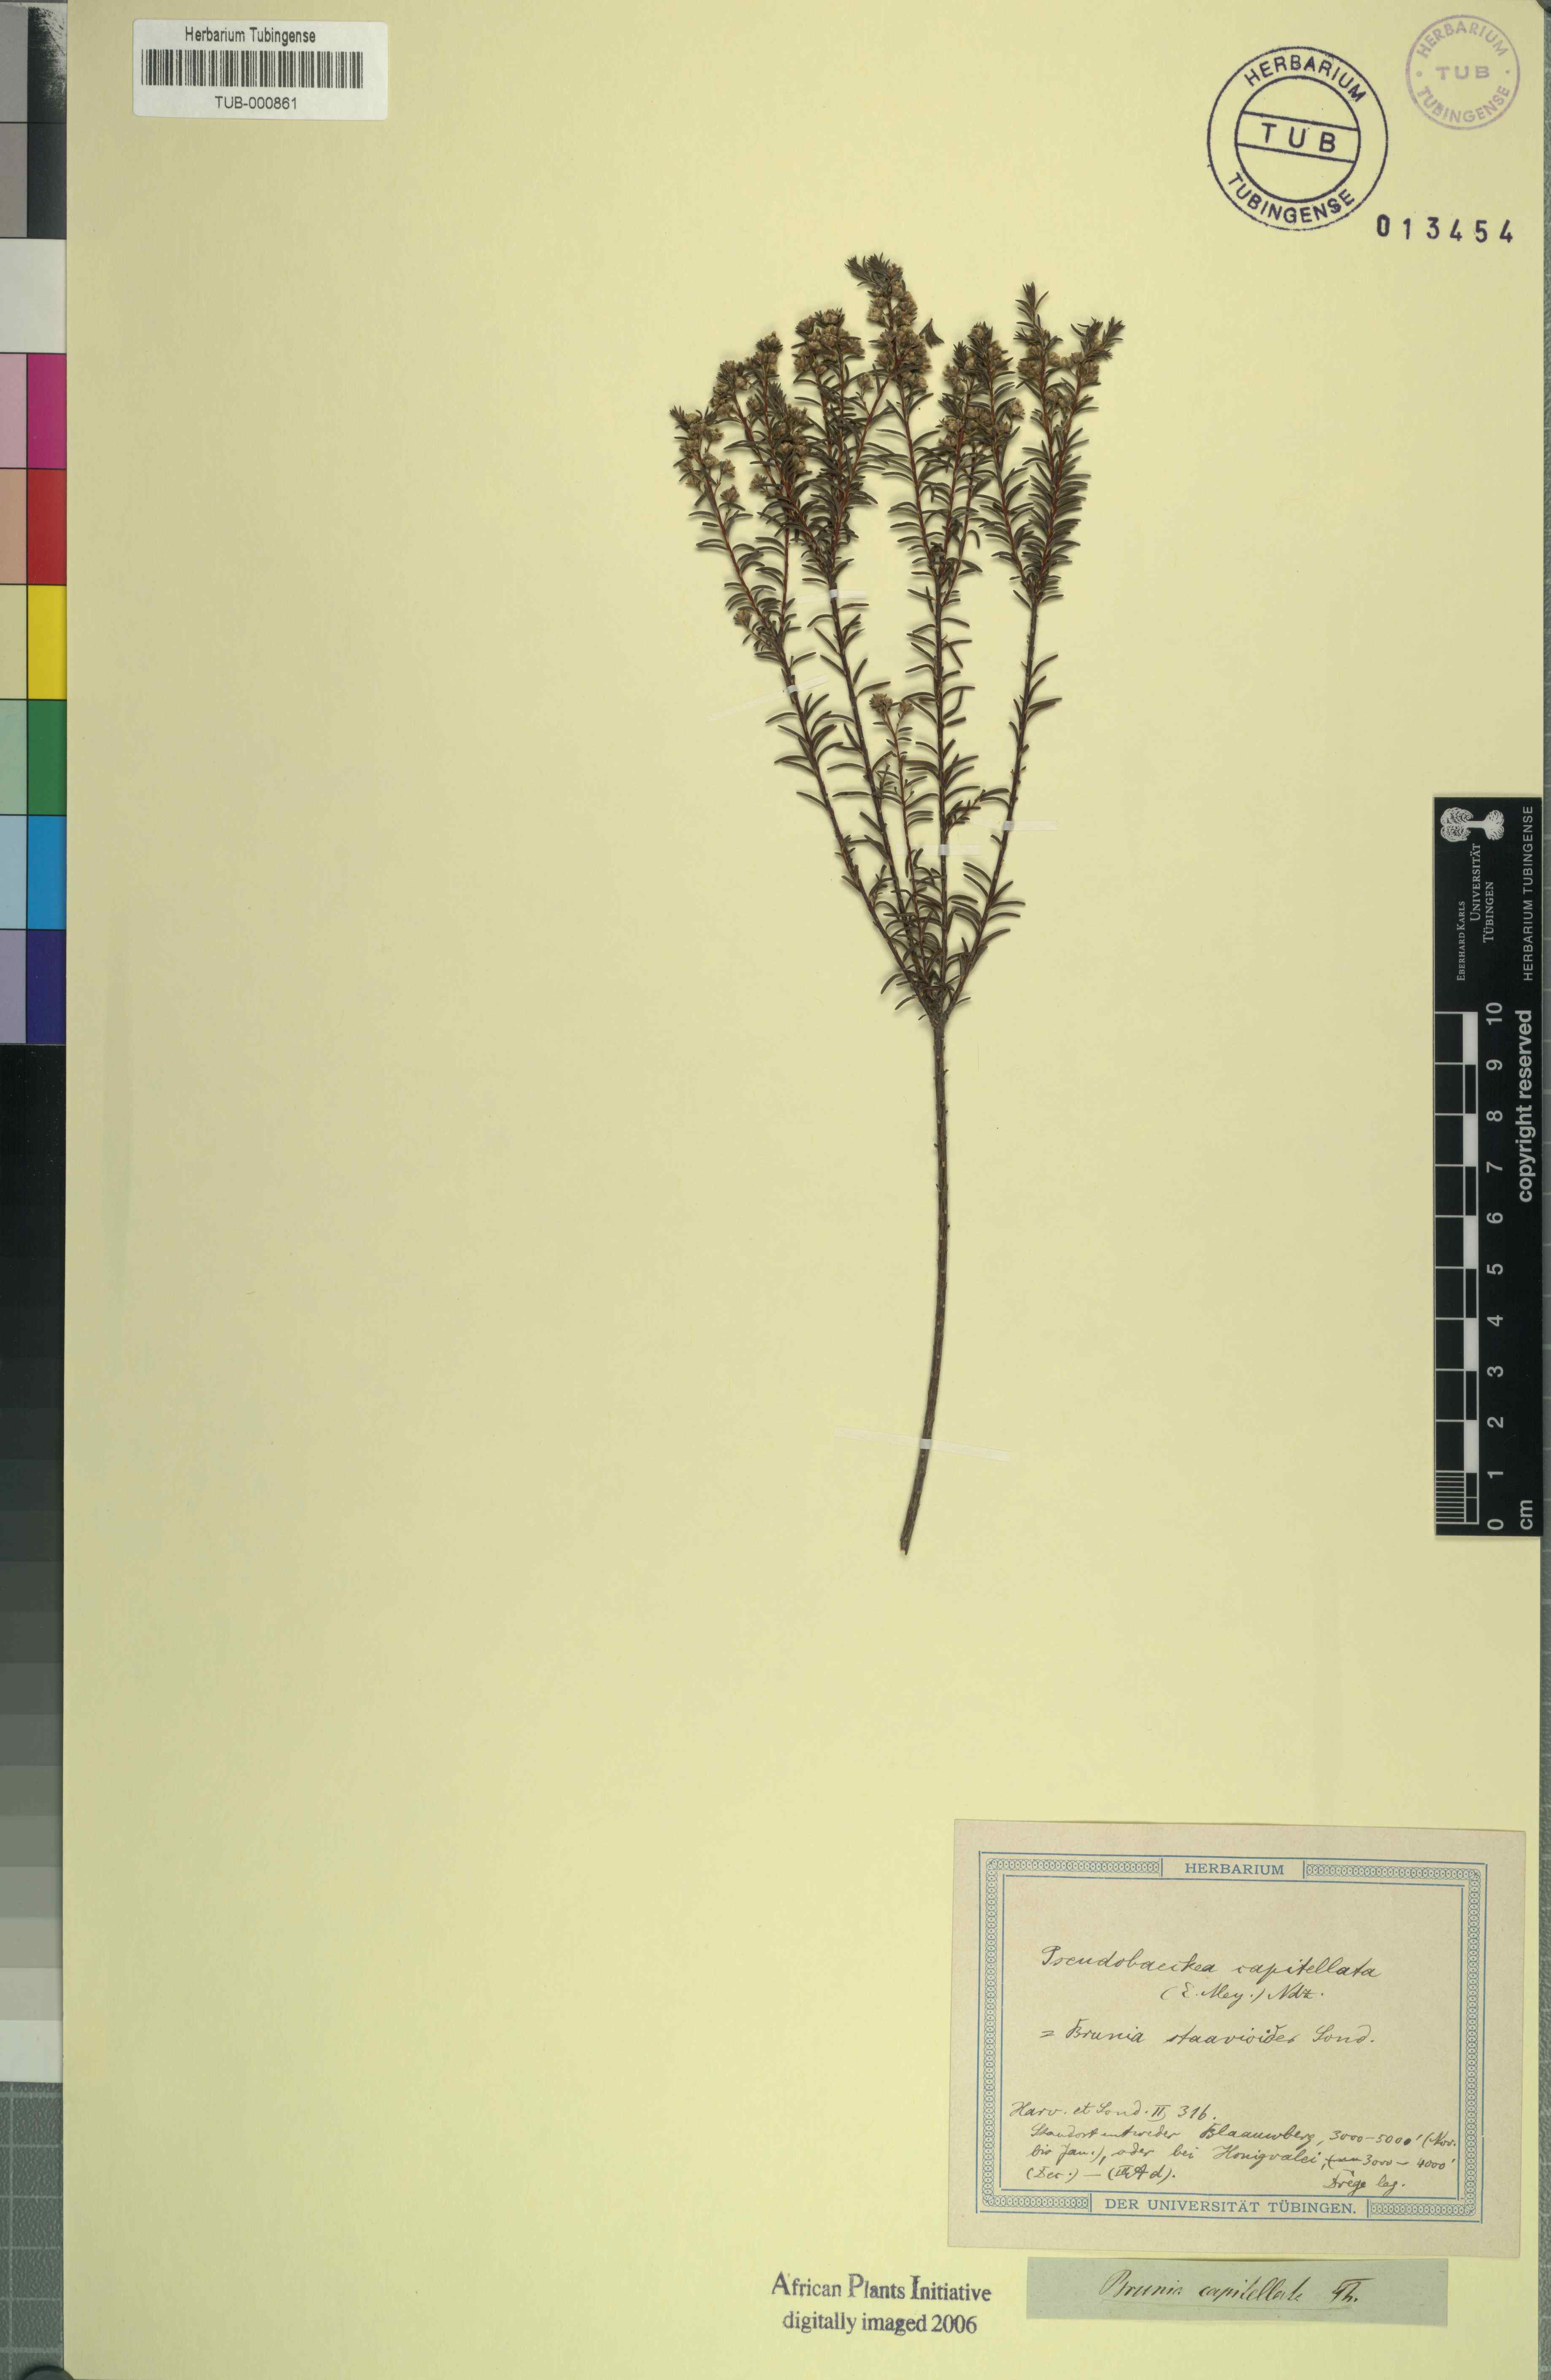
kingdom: Plantae
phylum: Tracheophyta
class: Magnoliopsida
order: Bruniales
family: Bruniaceae
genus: Staavia
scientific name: Staavia staavioides
